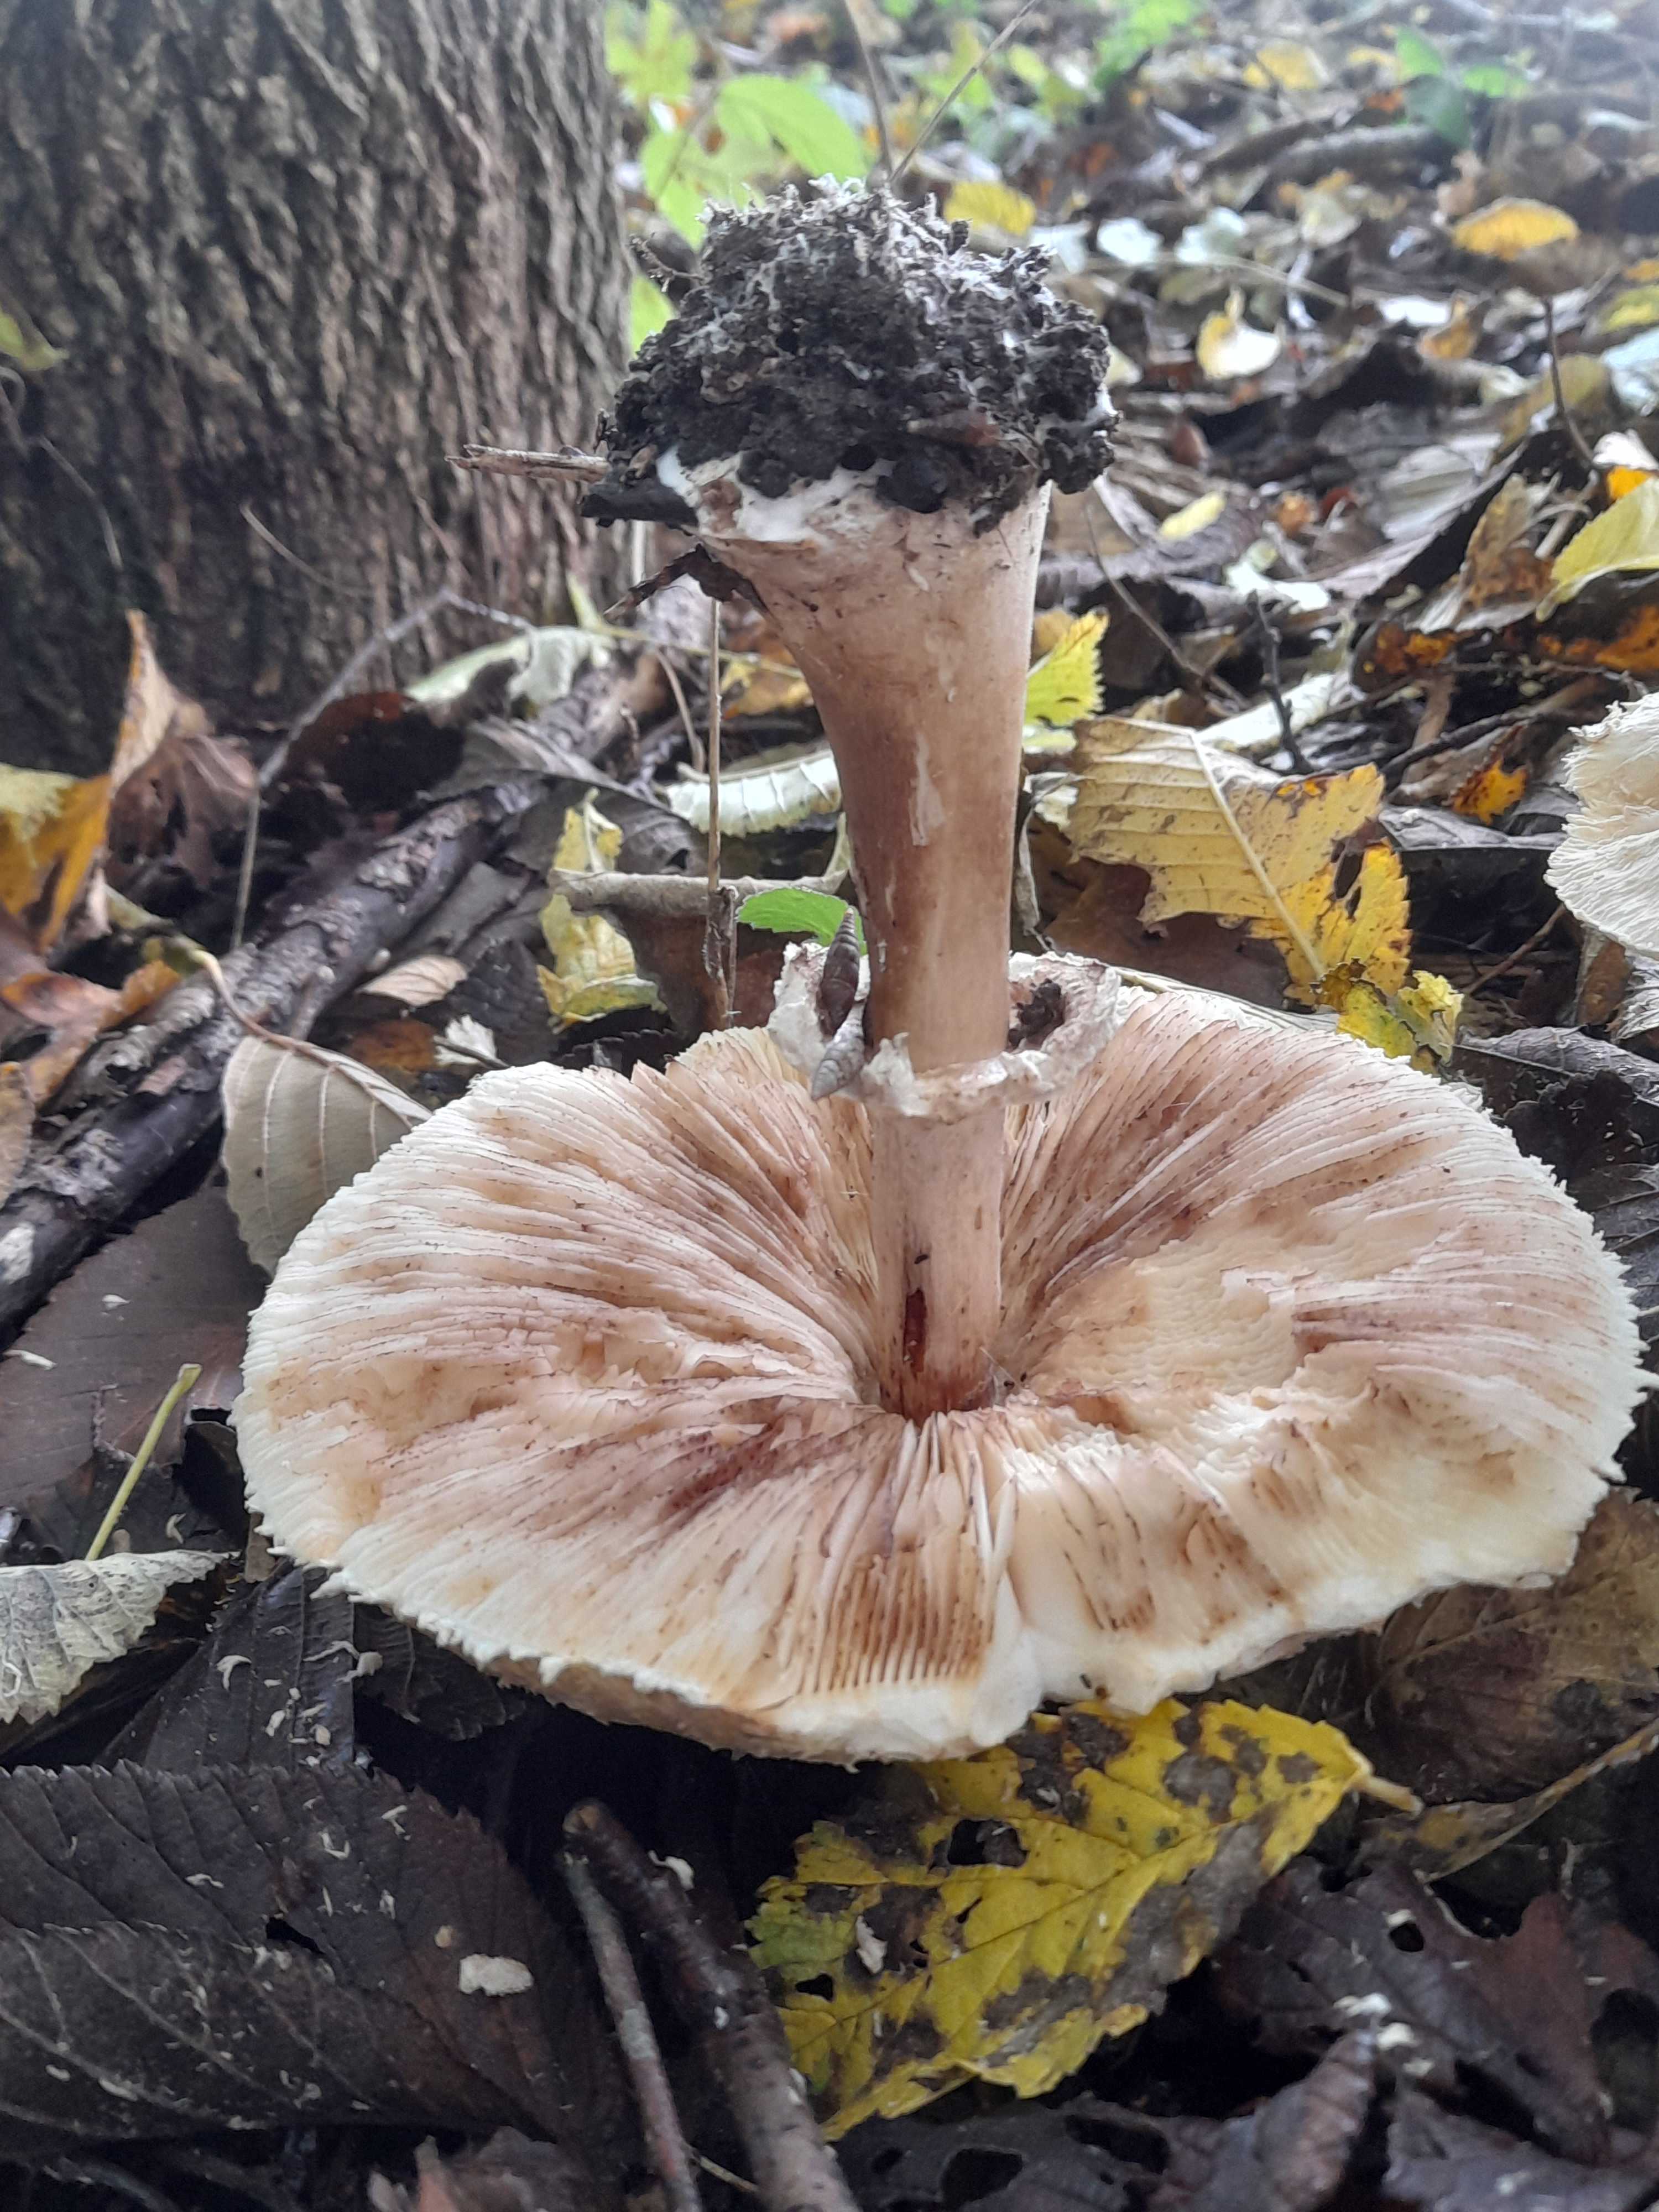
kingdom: Fungi
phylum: Basidiomycota
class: Agaricomycetes
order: Agaricales
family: Agaricaceae
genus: Chlorophyllum
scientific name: Chlorophyllum brunneum
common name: giftig rabarberhat
